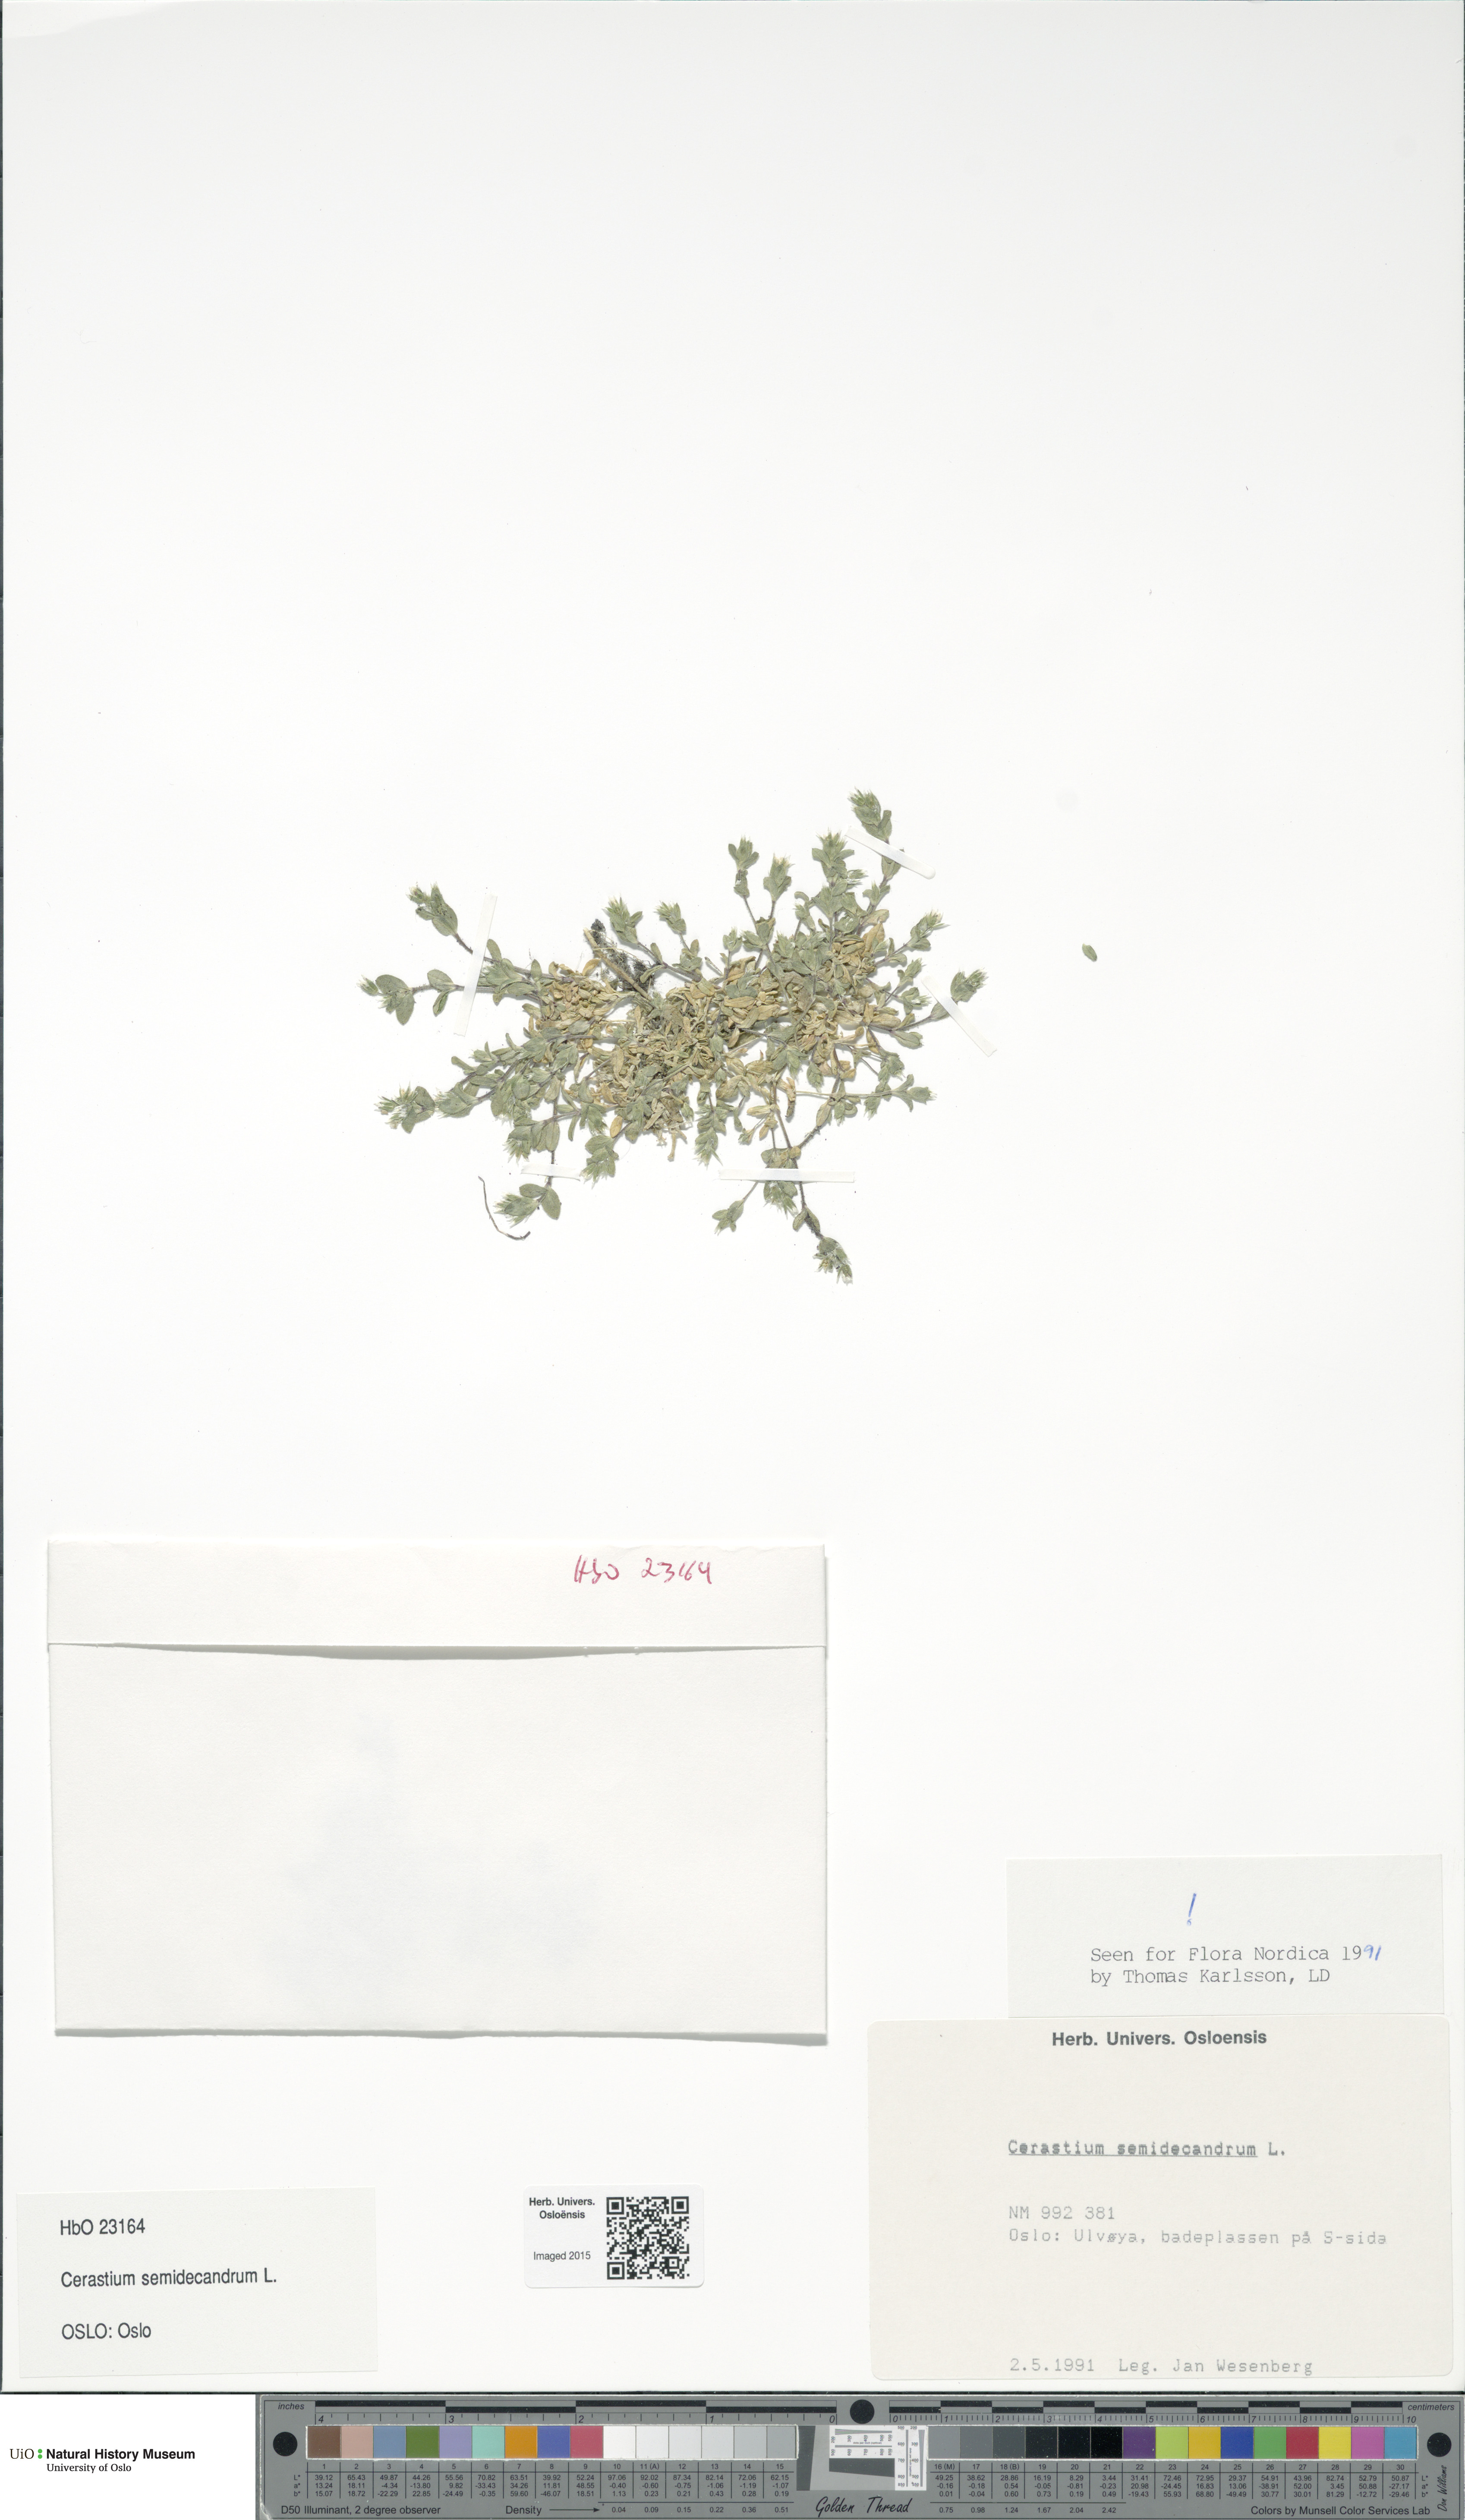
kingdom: Plantae
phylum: Tracheophyta
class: Magnoliopsida
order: Caryophyllales
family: Caryophyllaceae
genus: Cerastium
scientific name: Cerastium semidecandrum
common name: Little mouse-ear
